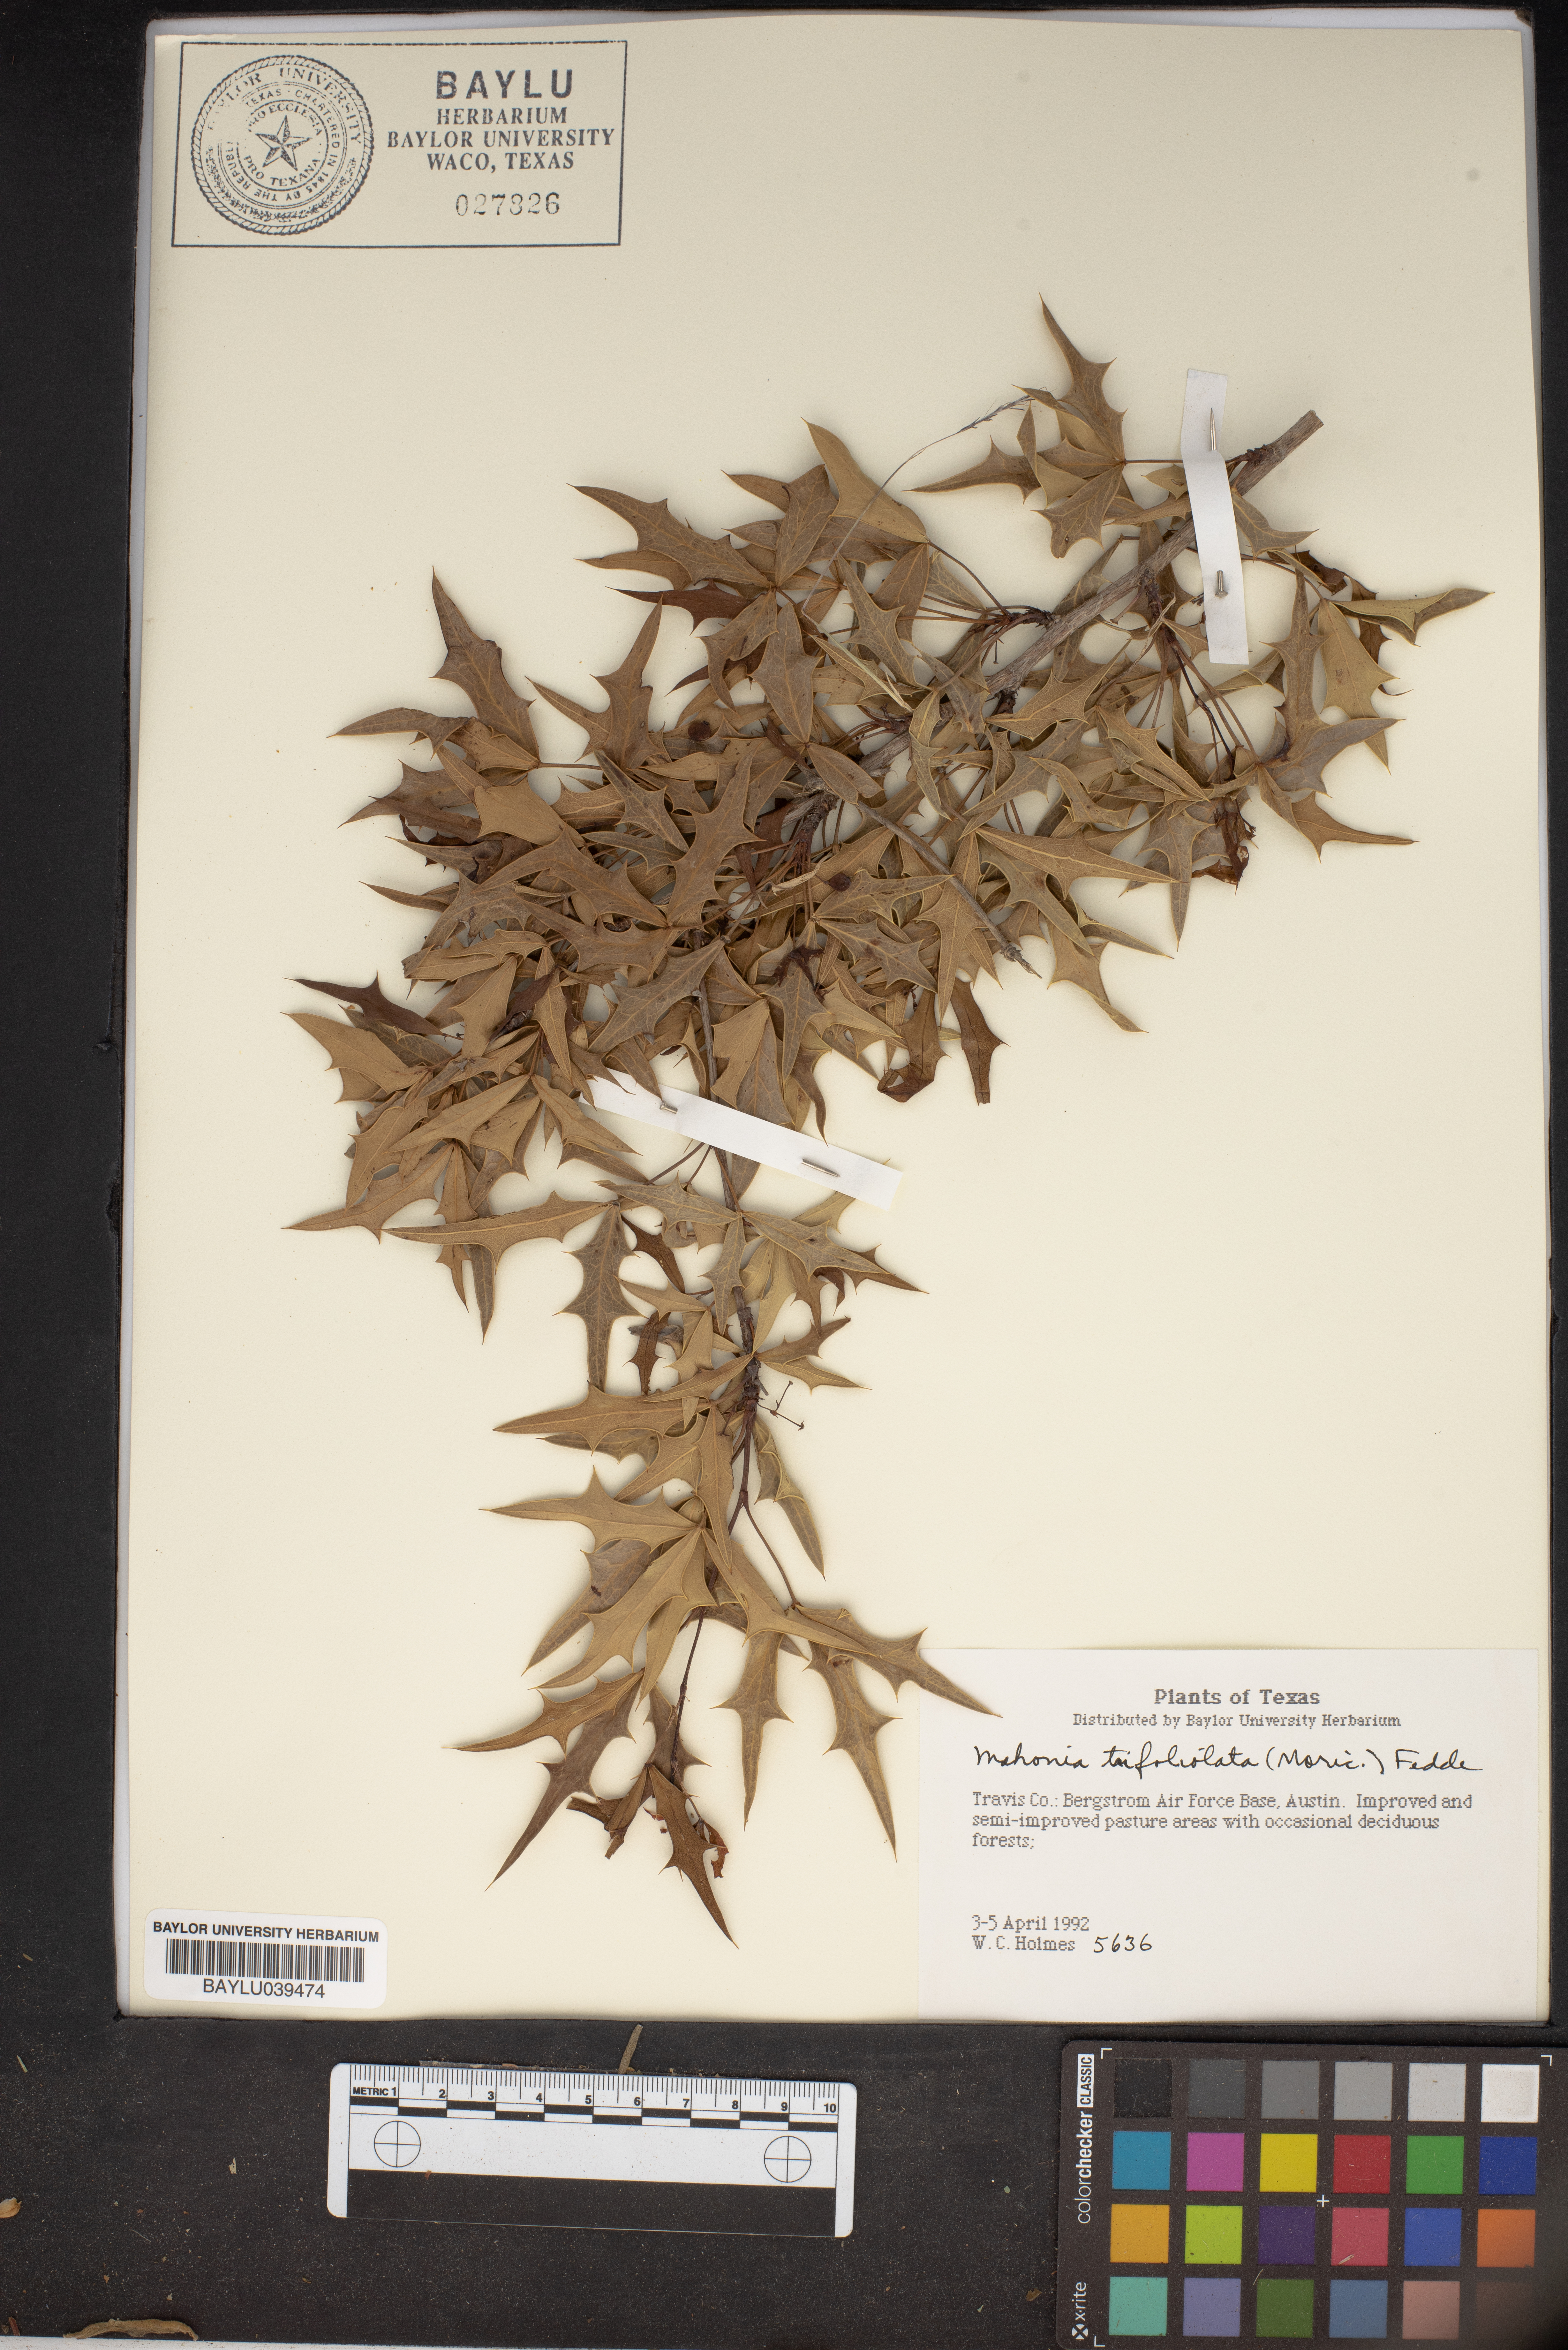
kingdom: Plantae
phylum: Tracheophyta
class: Magnoliopsida
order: Ranunculales
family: Berberidaceae
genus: Alloberberis
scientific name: Alloberberis trifoliolata
